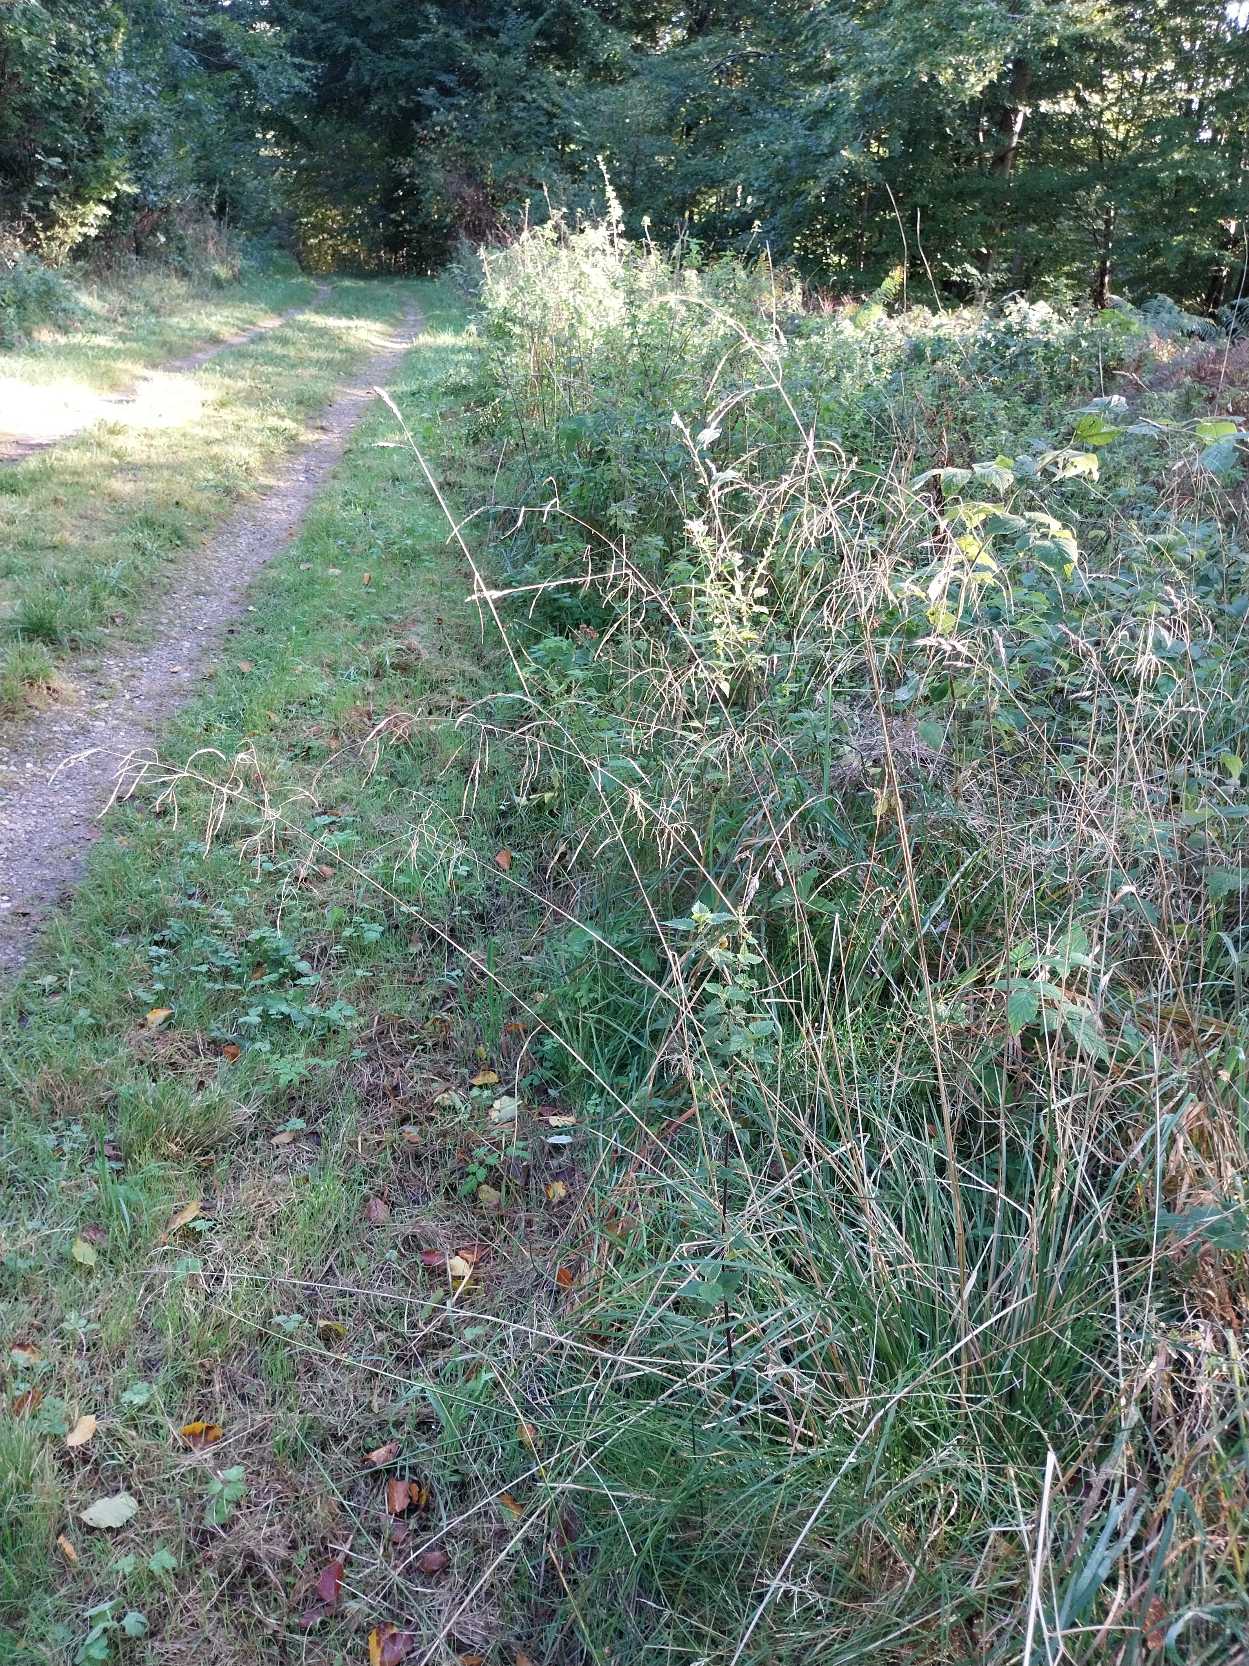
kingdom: Plantae
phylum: Tracheophyta
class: Liliopsida
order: Poales
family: Poaceae
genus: Deschampsia
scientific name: Deschampsia cespitosa
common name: Mose-bunke
